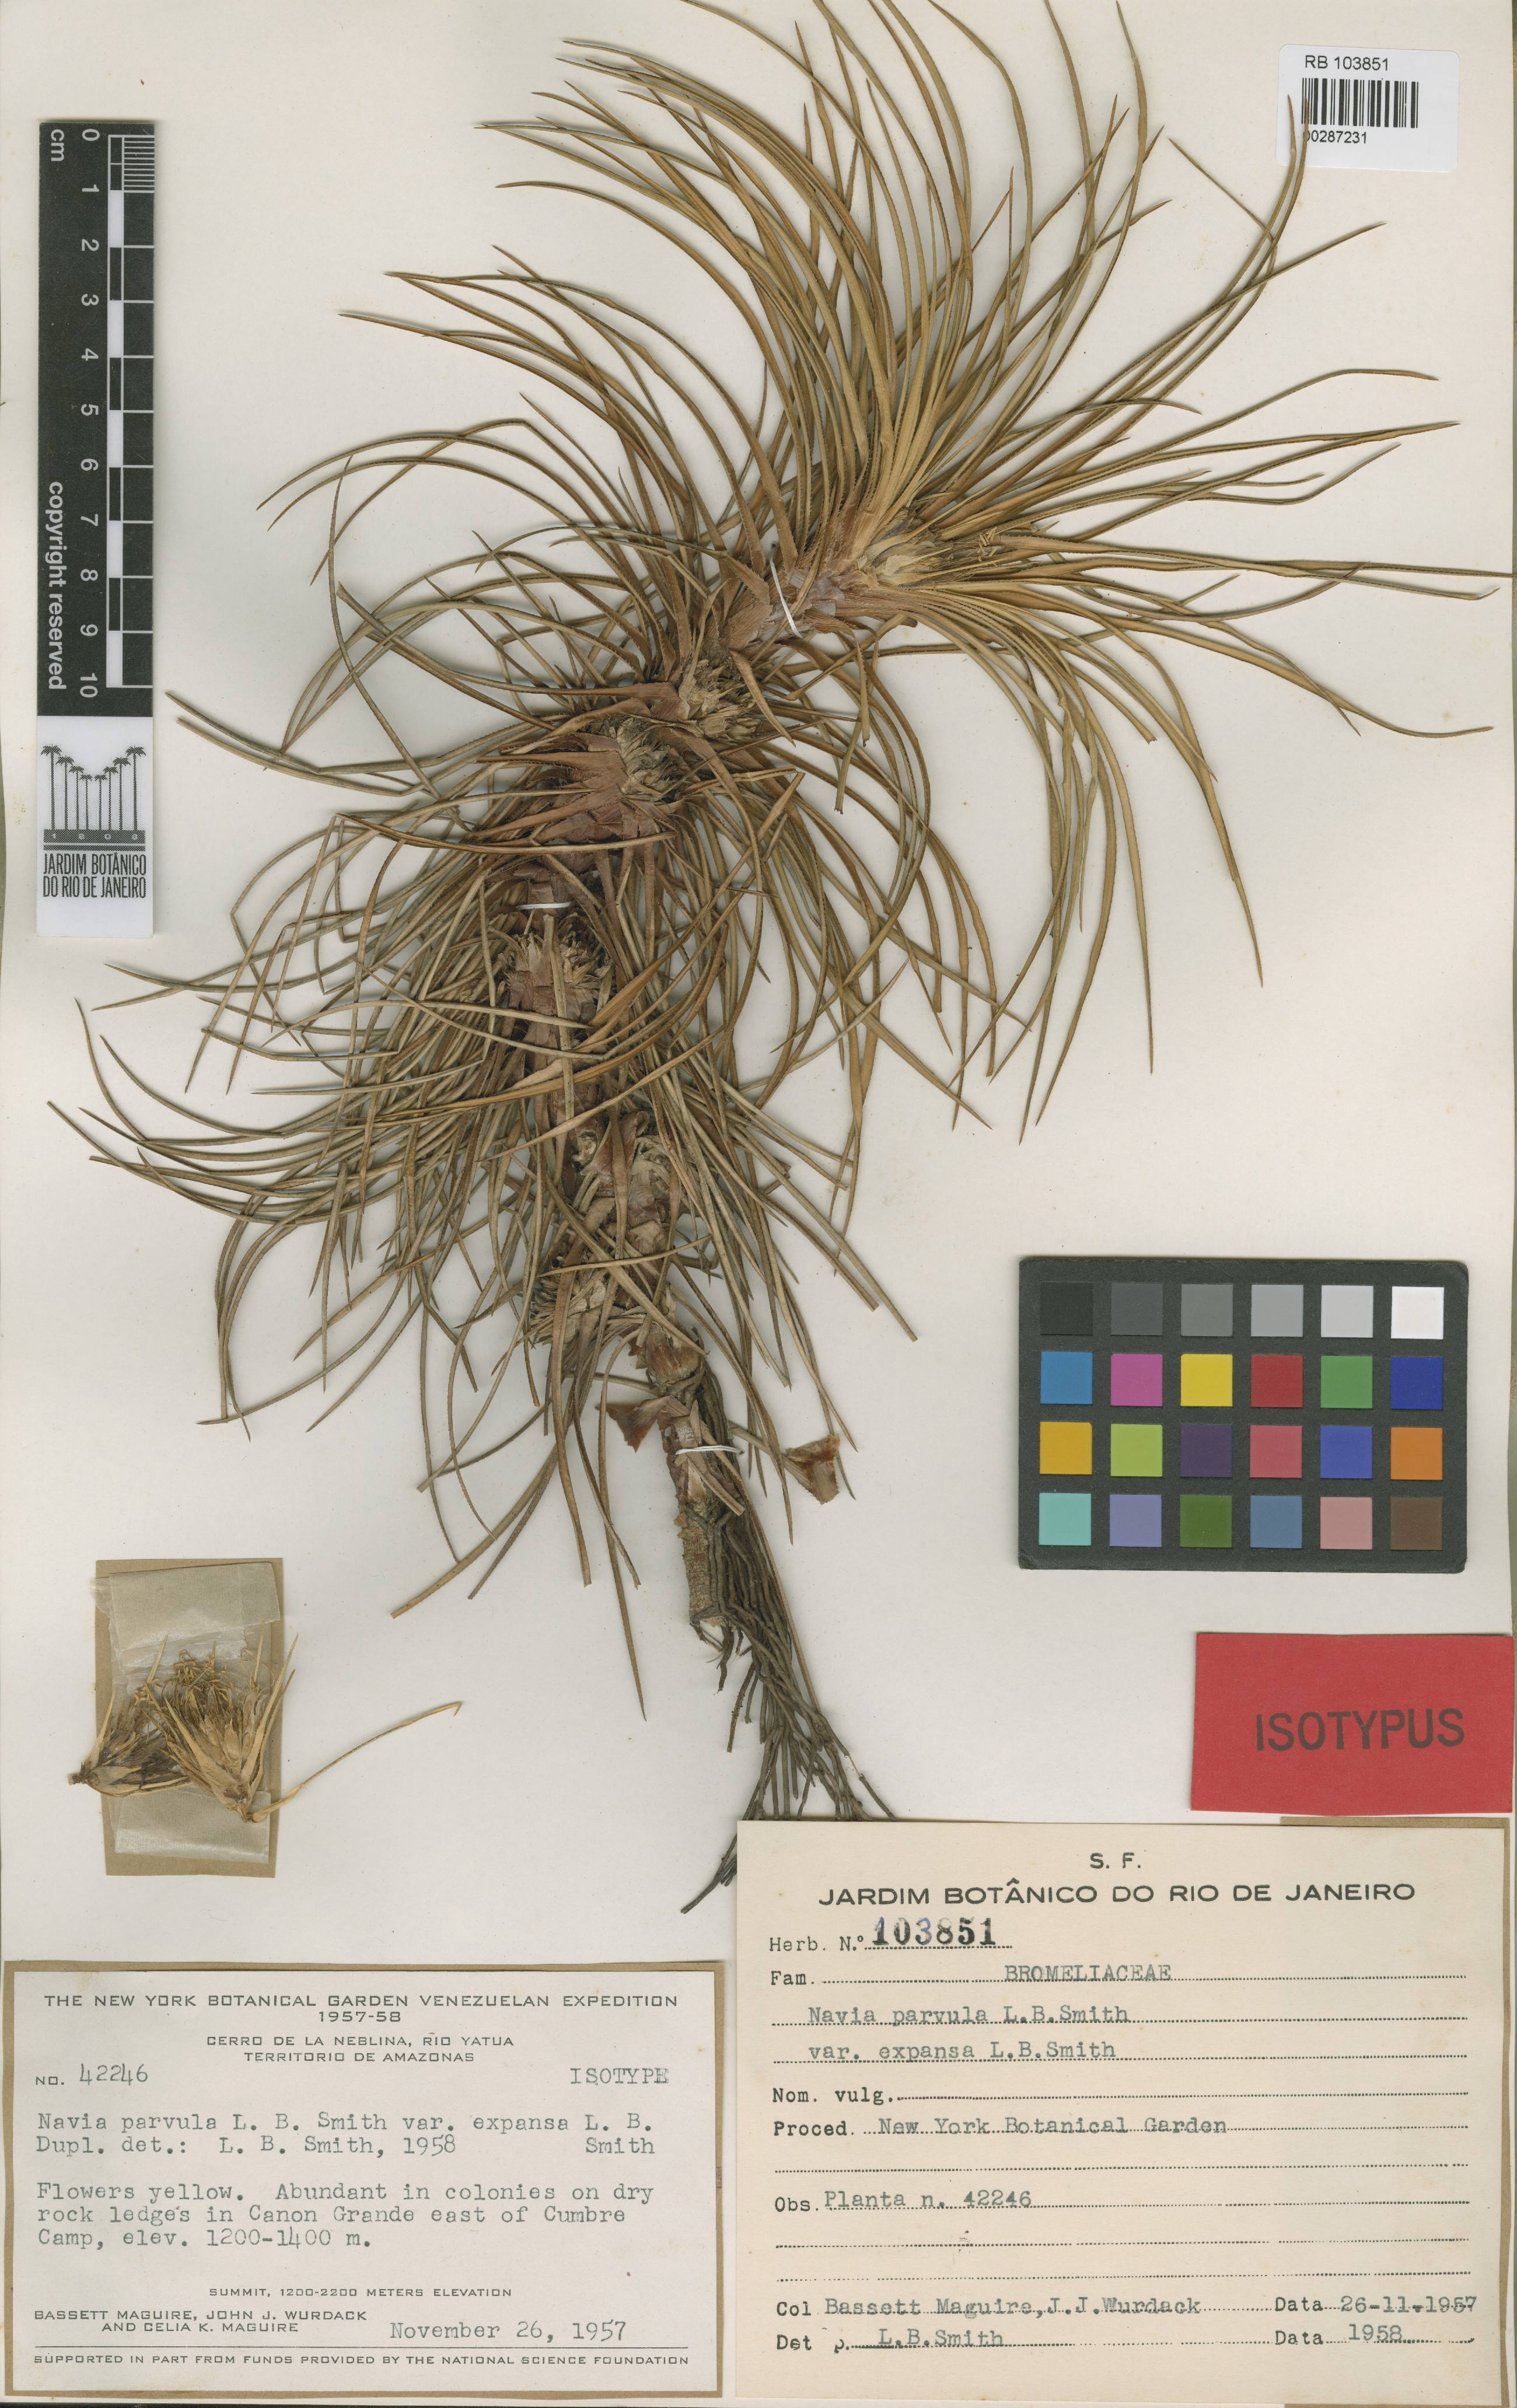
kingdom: Plantae
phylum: Tracheophyta
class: Liliopsida
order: Poales
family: Bromeliaceae
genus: Navia
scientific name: Navia parvula
